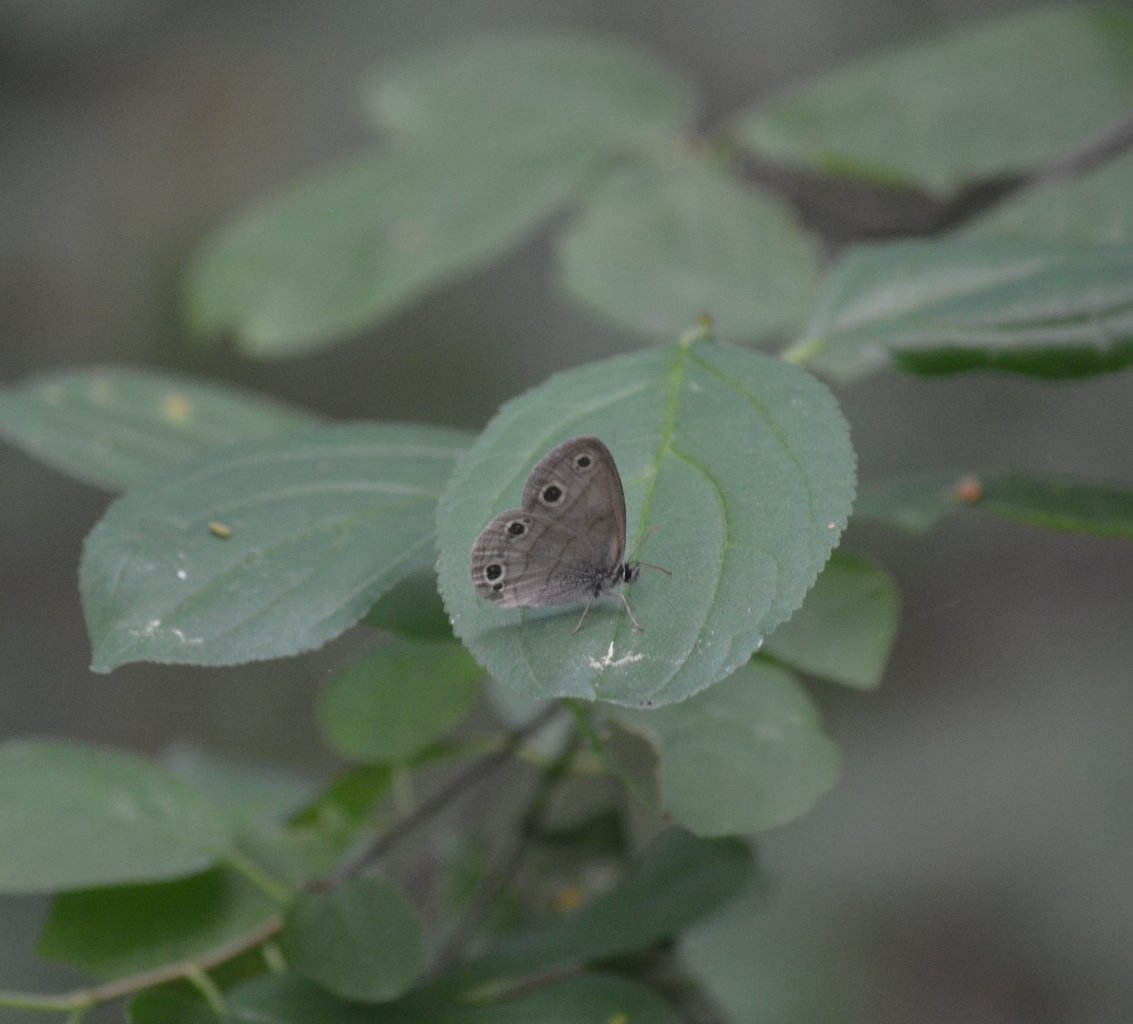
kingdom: Animalia
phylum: Arthropoda
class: Insecta
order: Lepidoptera
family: Nymphalidae
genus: Euptychia
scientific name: Euptychia cymela
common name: Little Wood Satyr
